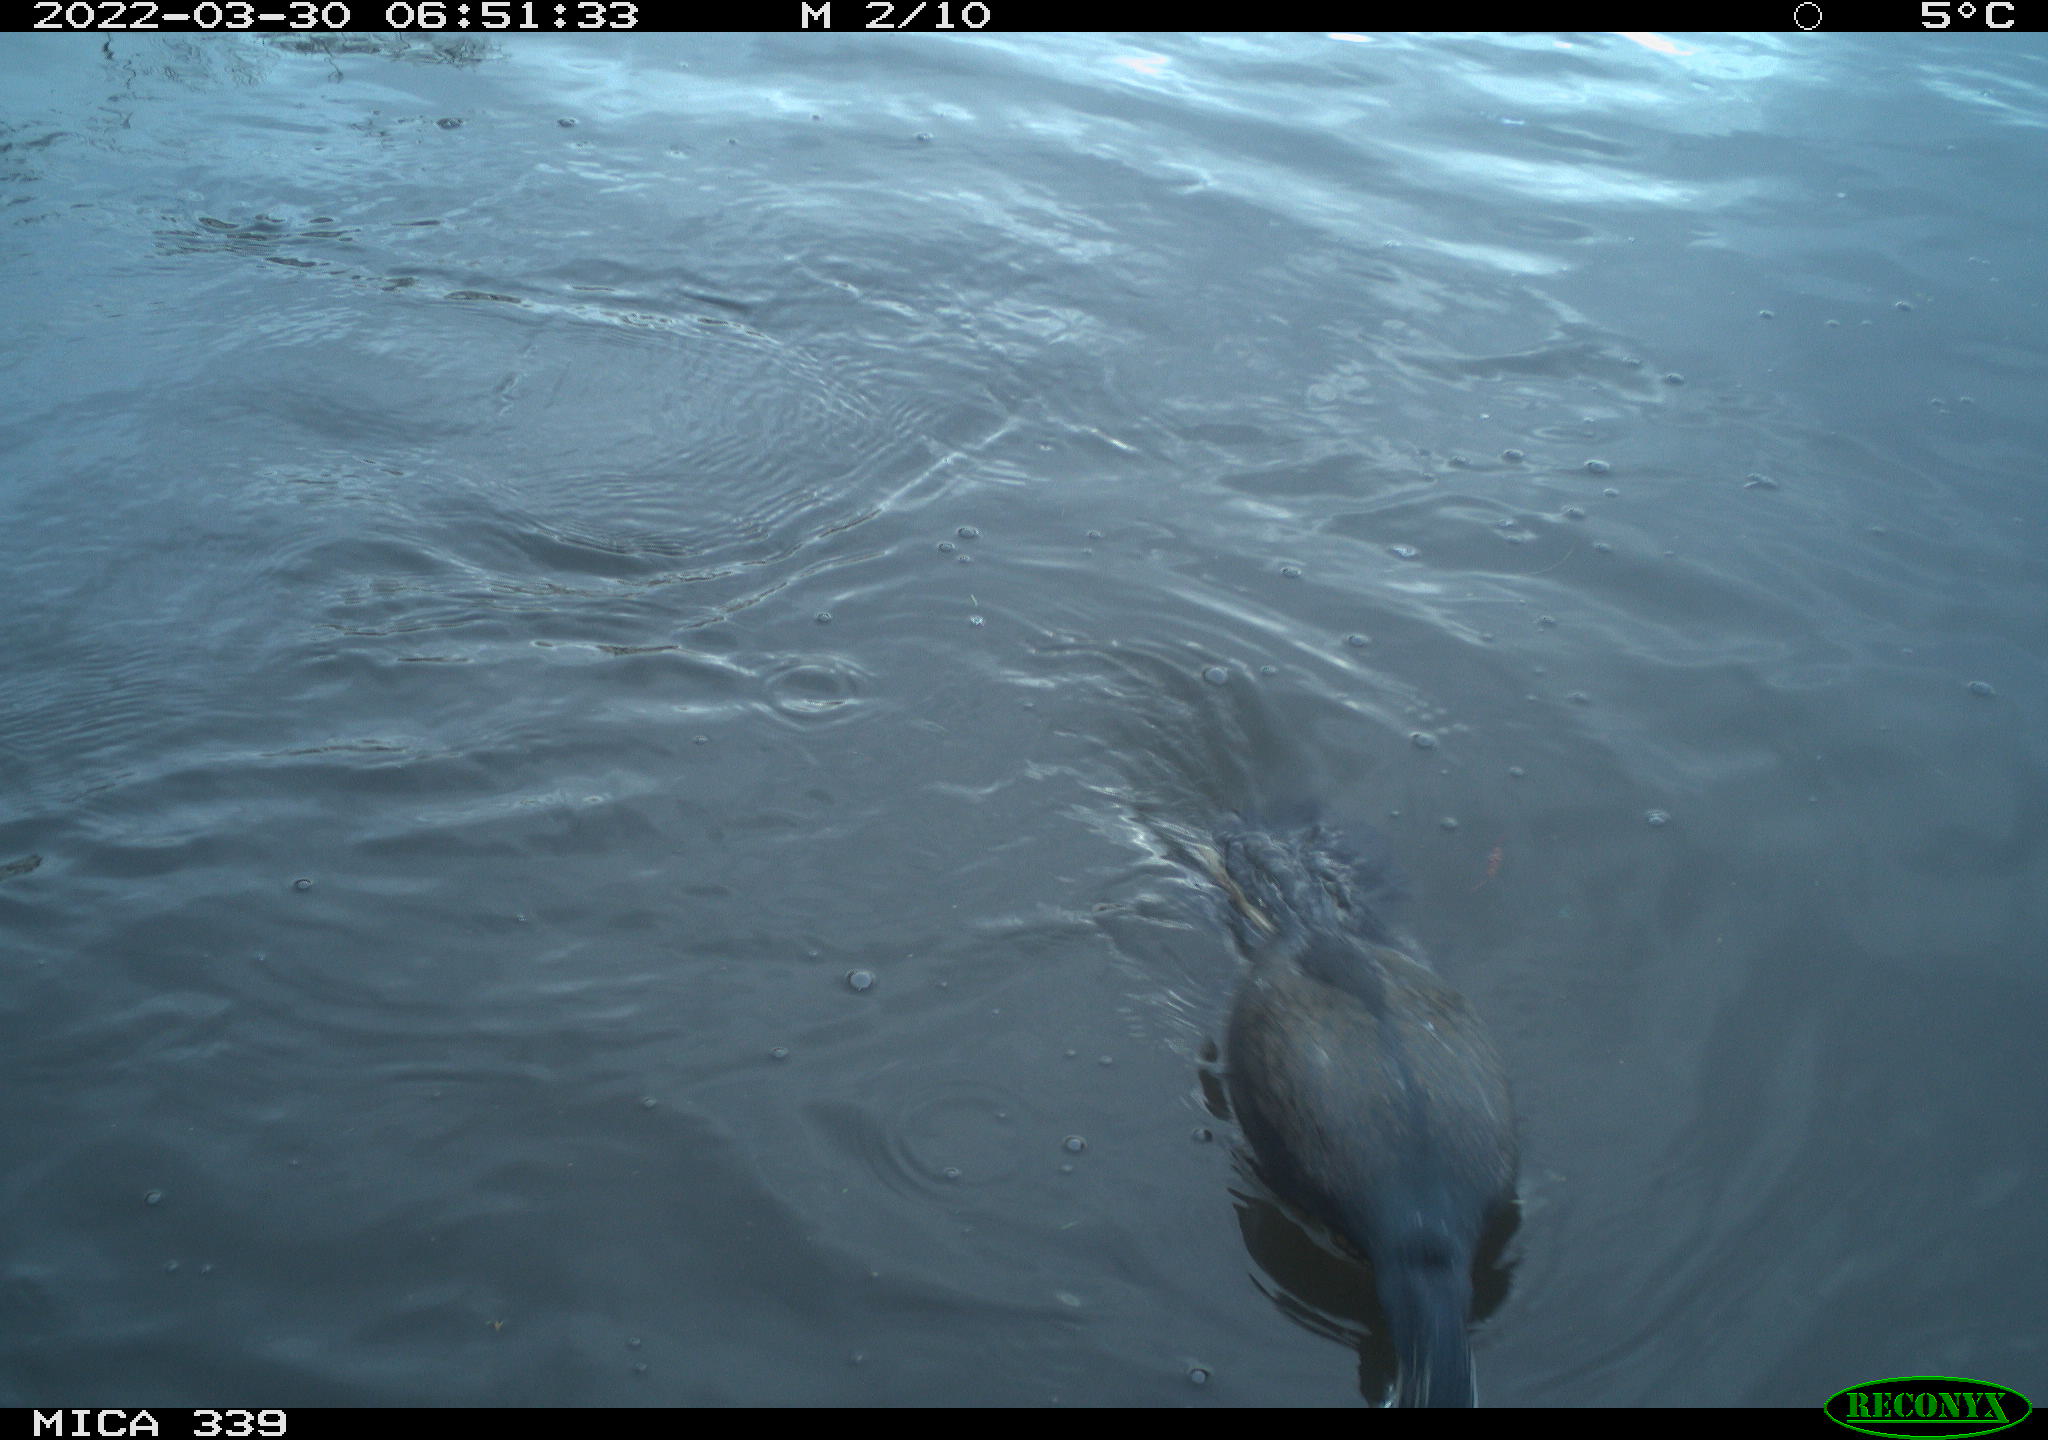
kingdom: Animalia
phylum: Chordata
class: Aves
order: Suliformes
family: Phalacrocoracidae
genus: Phalacrocorax
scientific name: Phalacrocorax carbo
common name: Great cormorant
